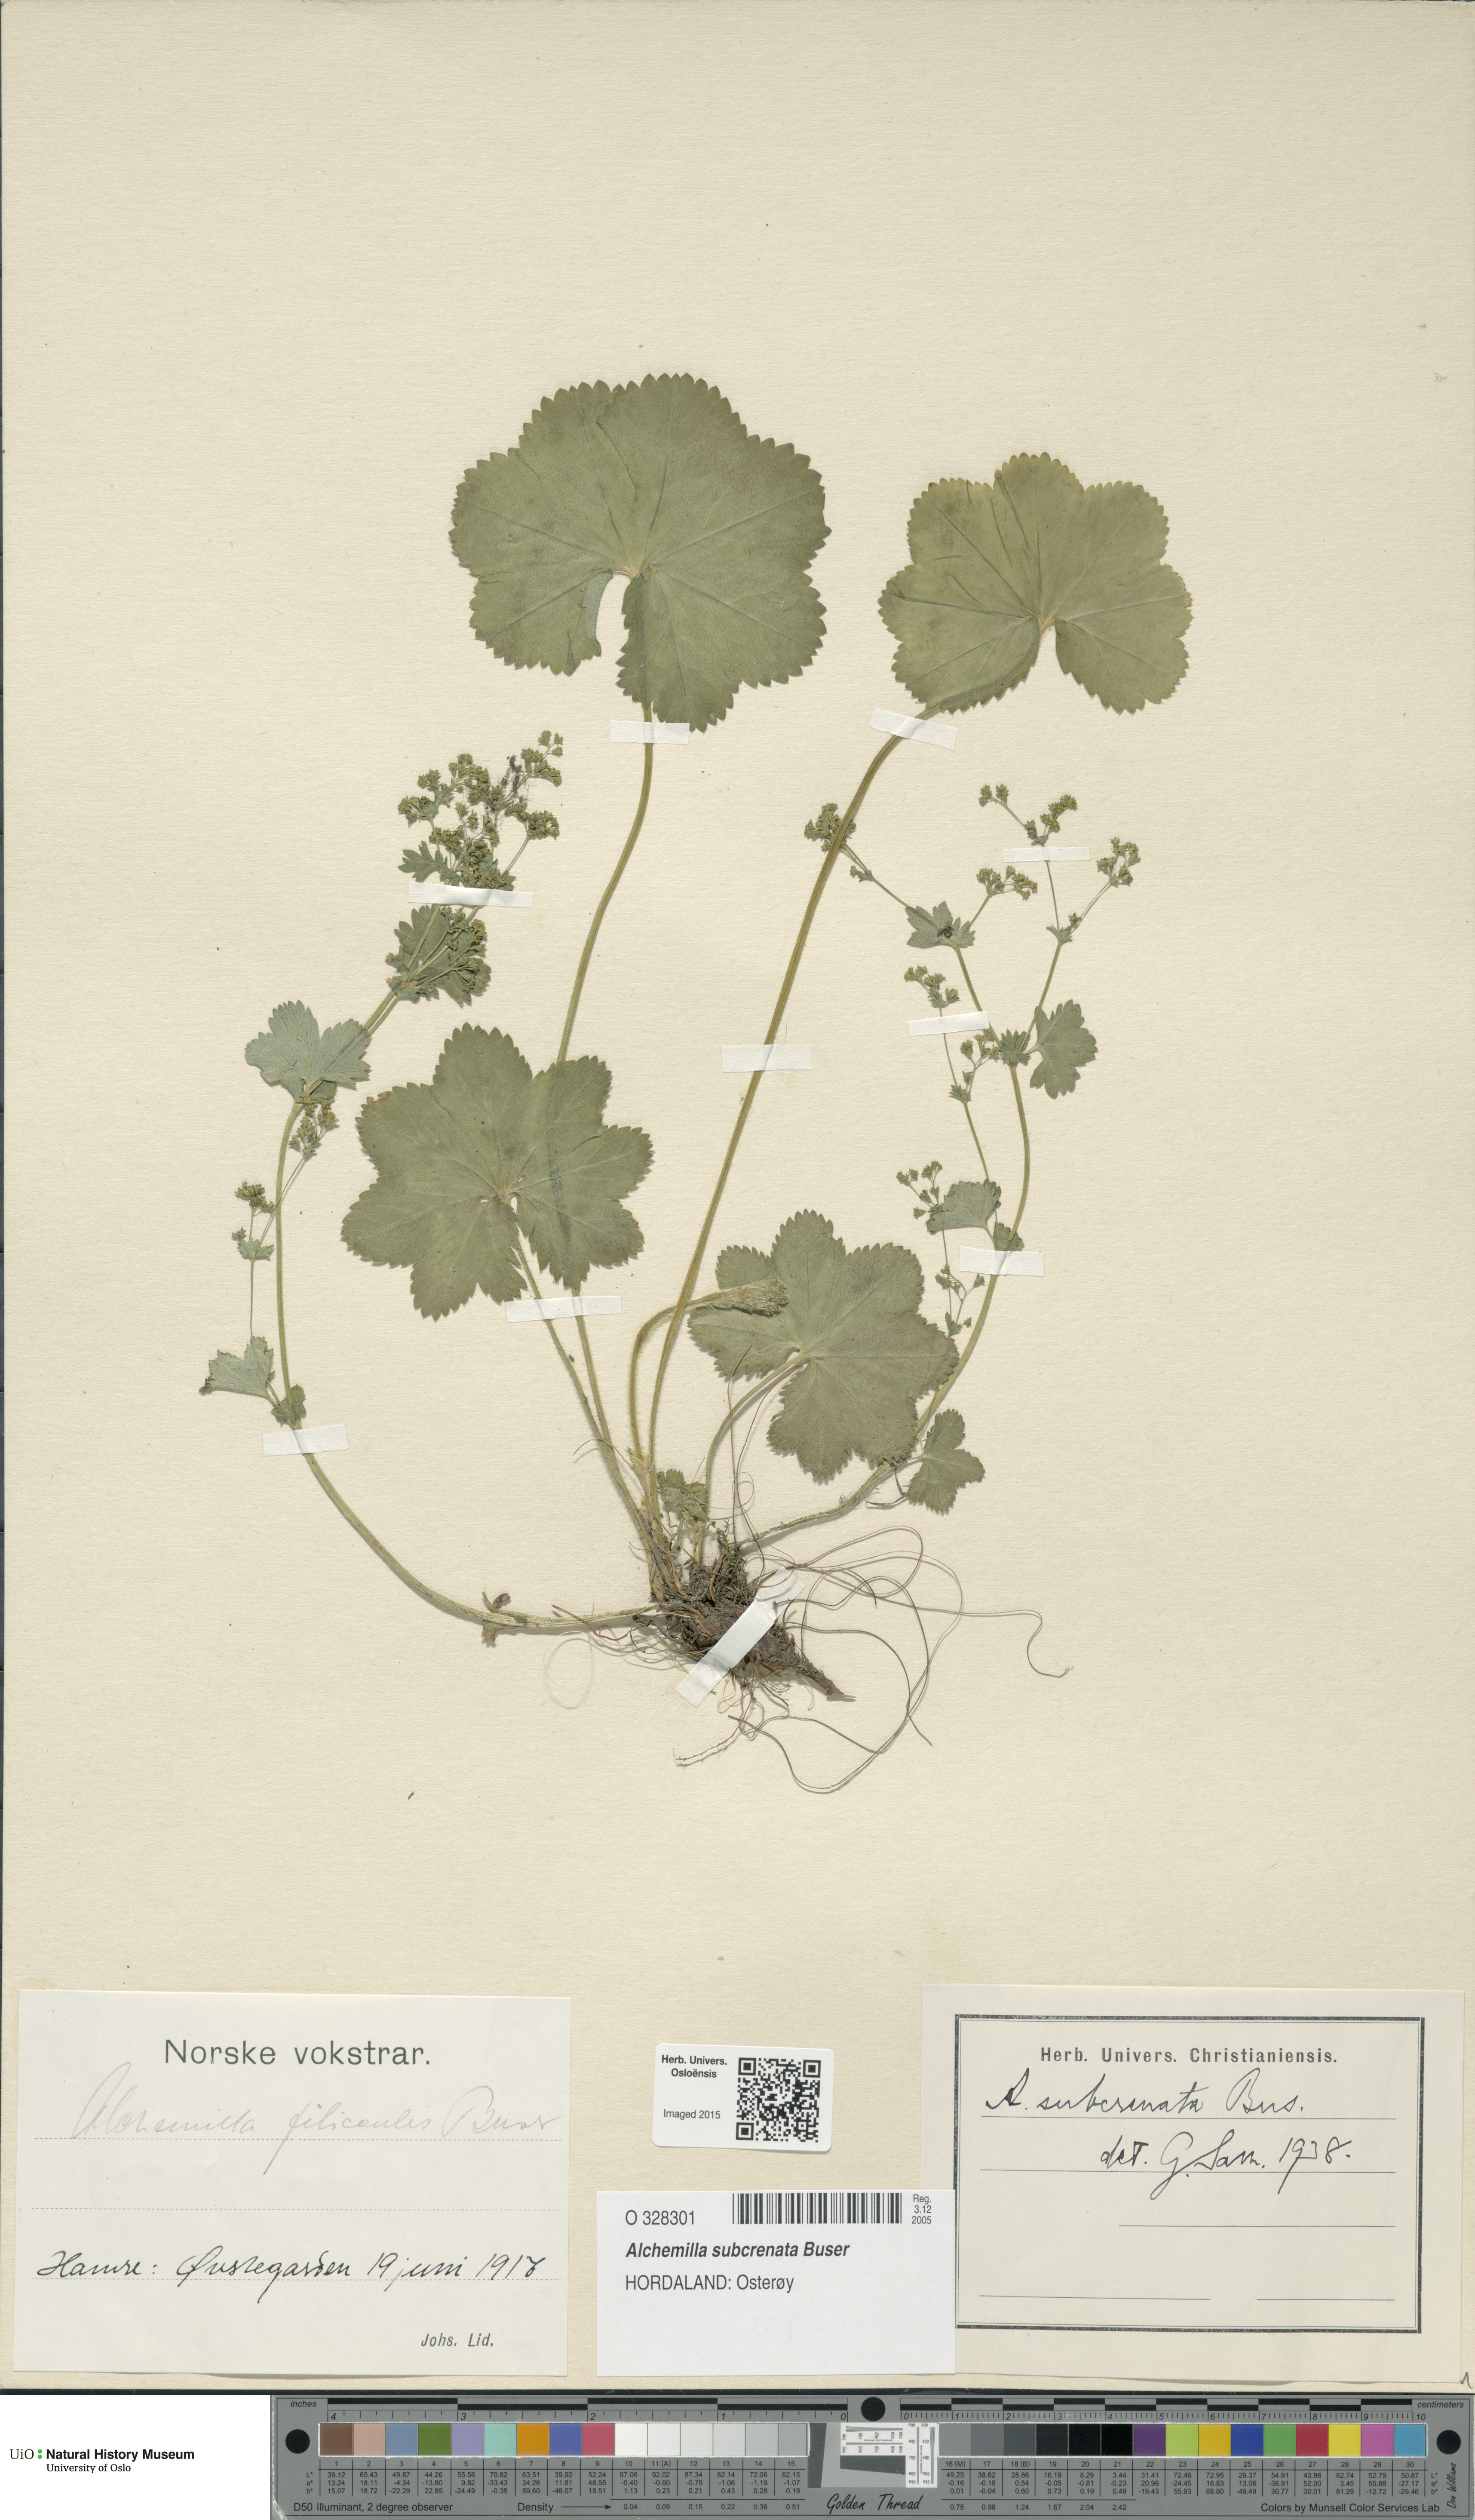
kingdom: Plantae
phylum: Tracheophyta
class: Magnoliopsida
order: Rosales
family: Rosaceae
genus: Alchemilla
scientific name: Alchemilla subcrenata
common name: Broadtooth lady's mantle
